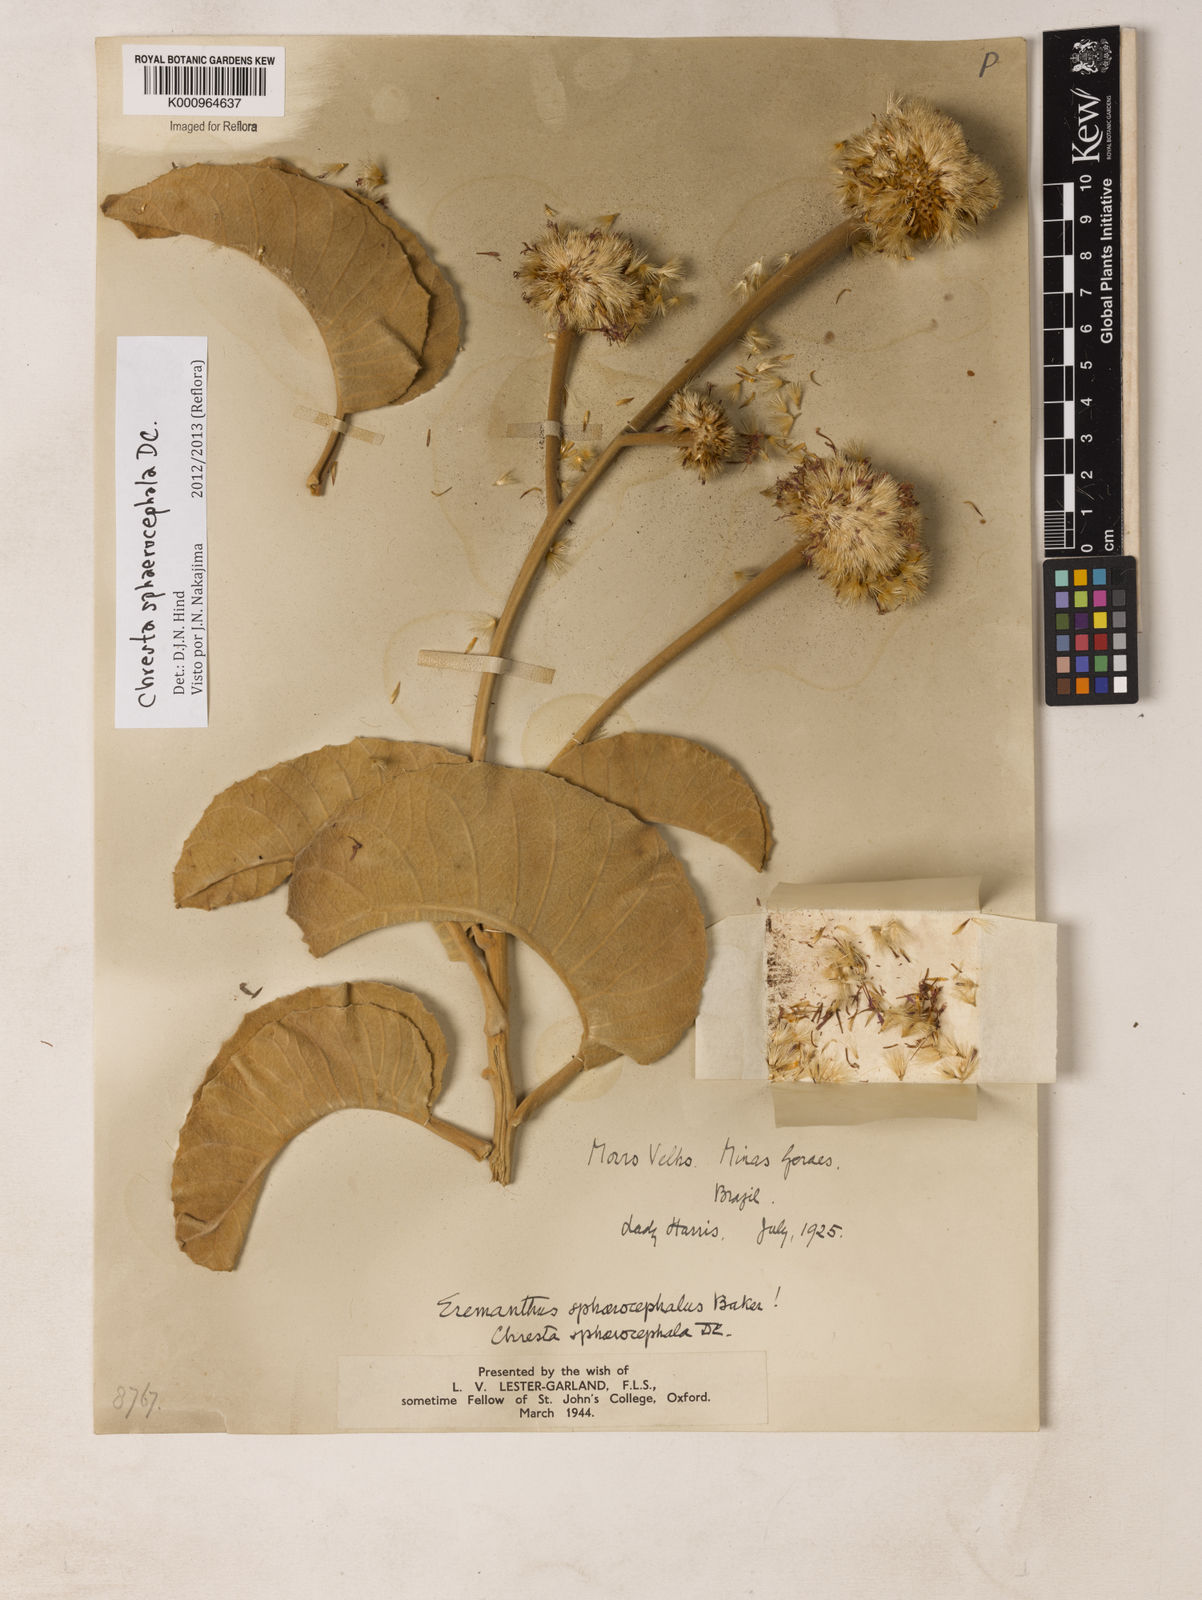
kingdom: Plantae
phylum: Tracheophyta
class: Magnoliopsida
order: Asterales
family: Asteraceae
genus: Chresta
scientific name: Chresta sphaerocephala
